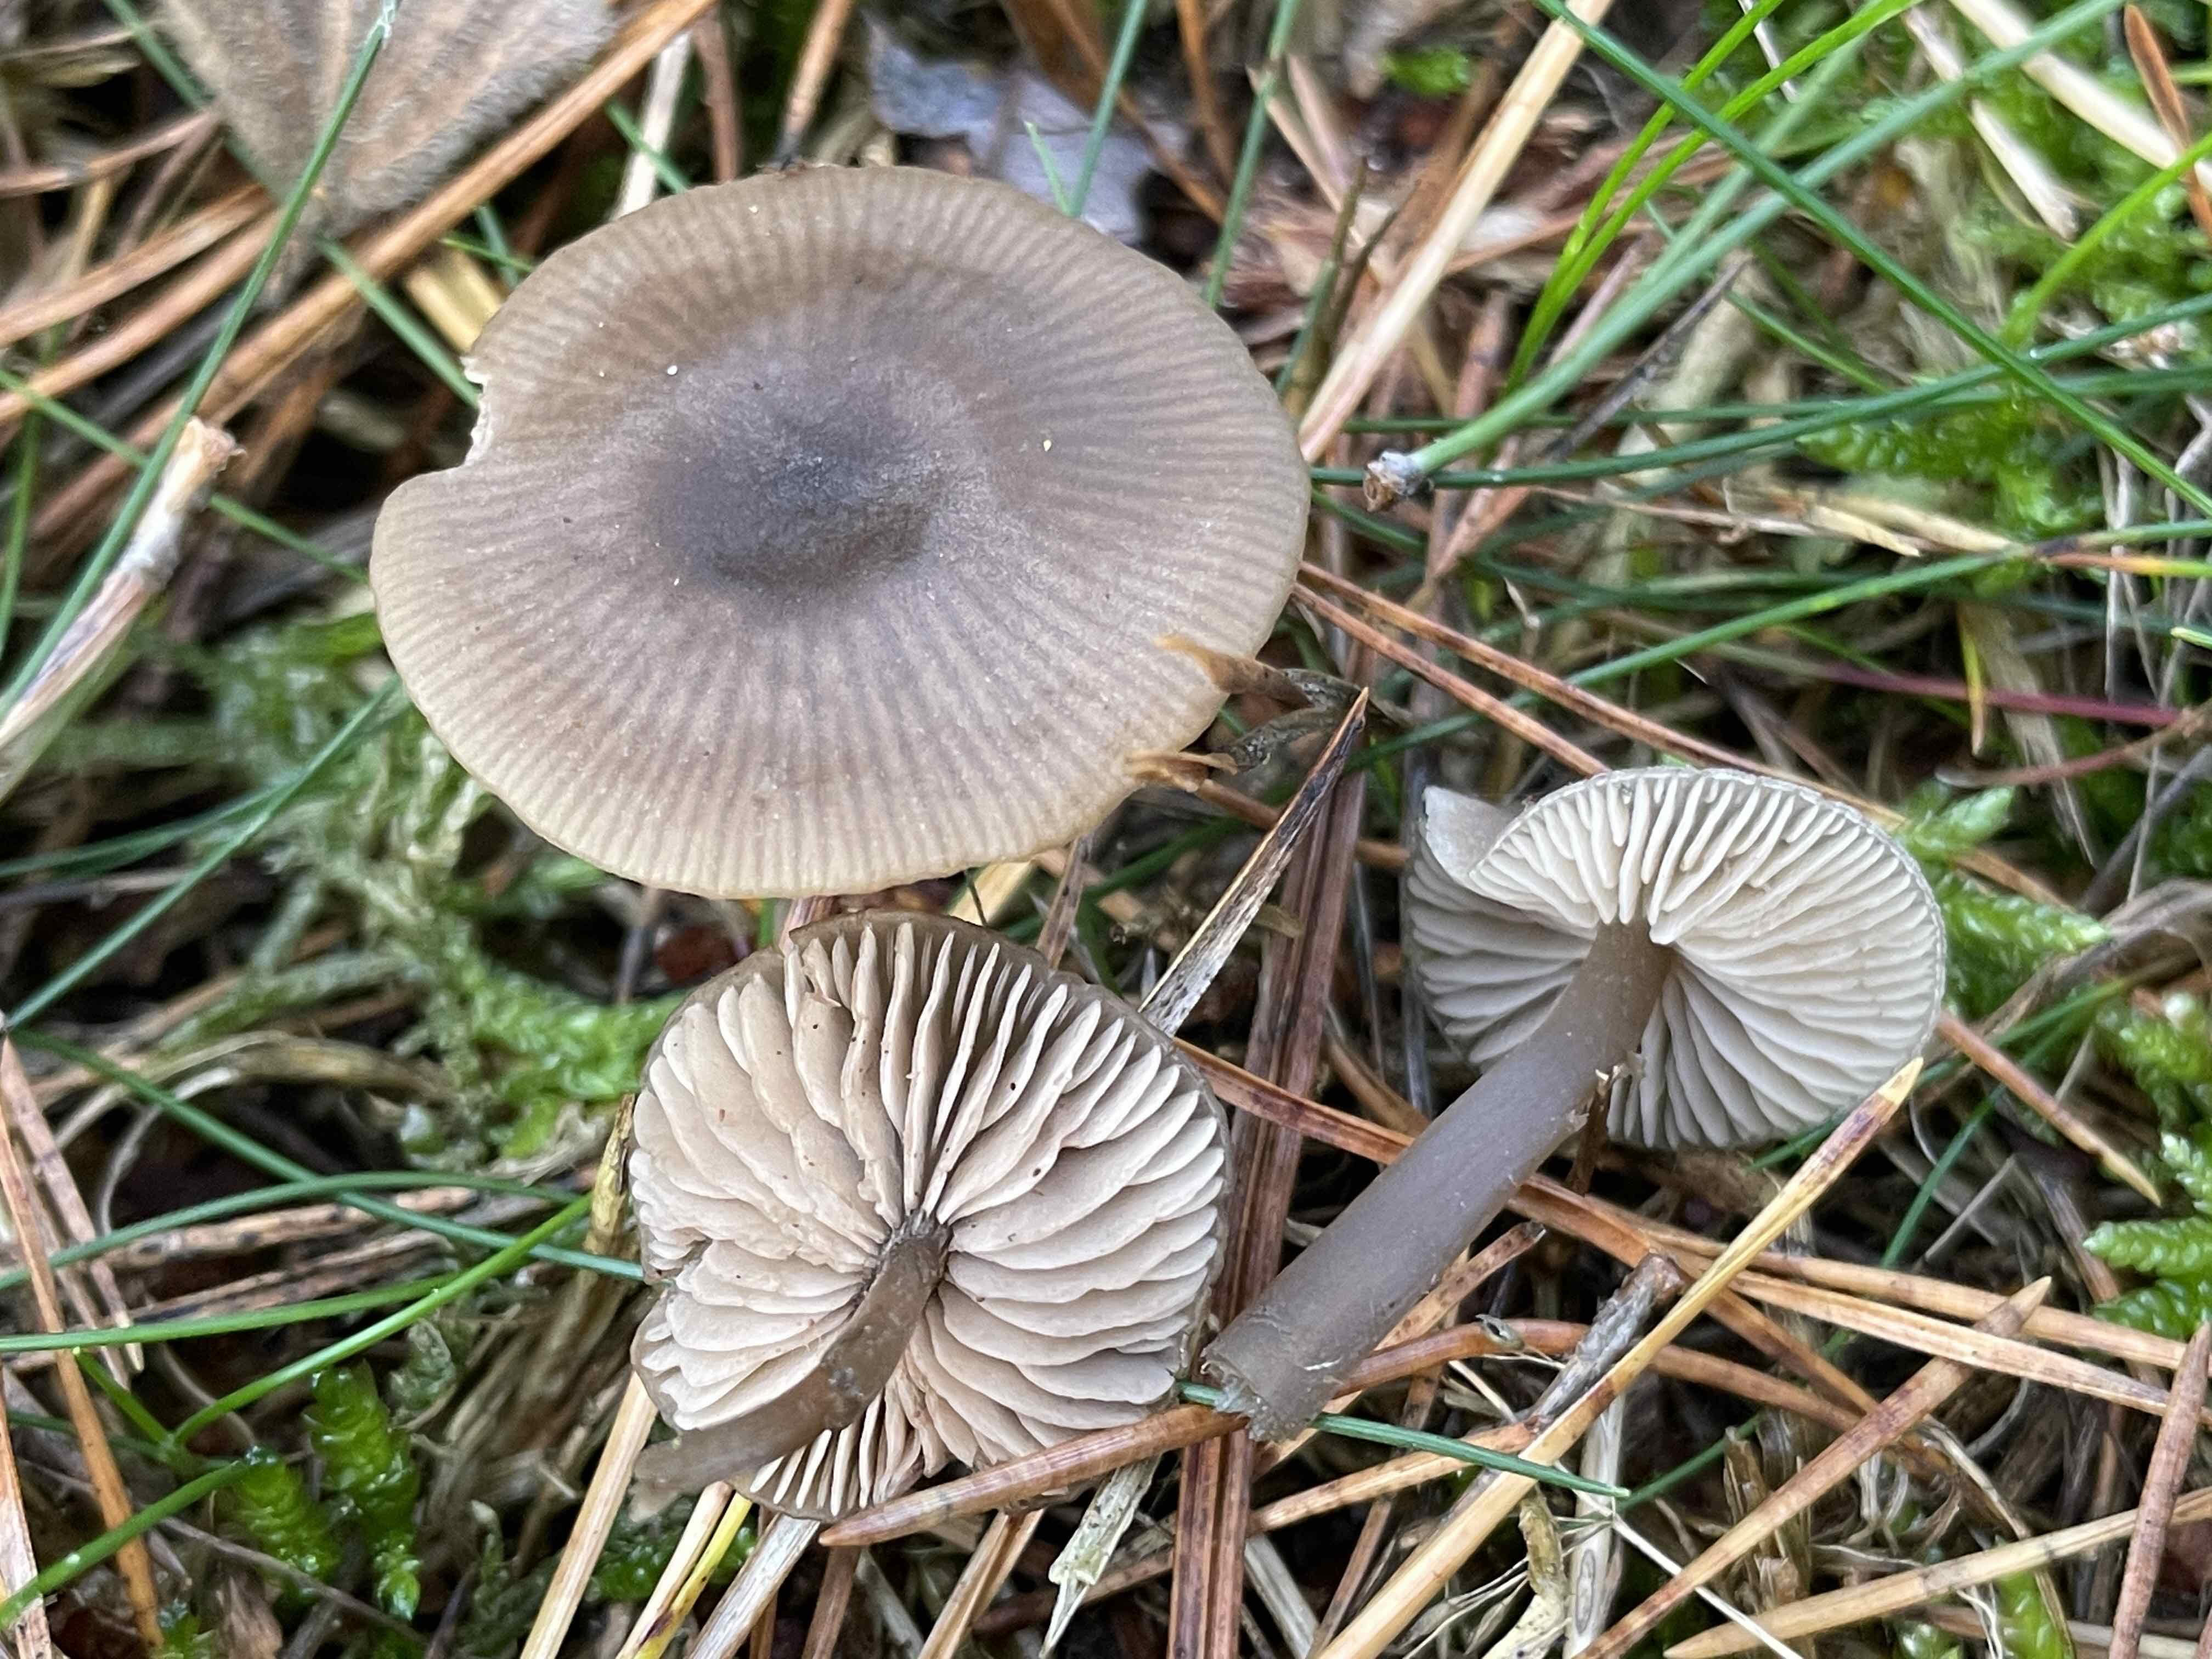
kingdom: Fungi
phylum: Basidiomycota
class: Agaricomycetes
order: Agaricales
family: Entolomataceae
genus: Entoloma
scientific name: Entoloma
